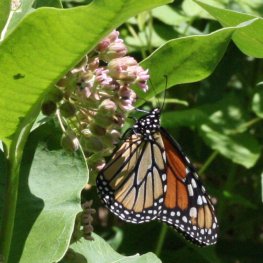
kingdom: Animalia
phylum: Arthropoda
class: Insecta
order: Lepidoptera
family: Nymphalidae
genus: Danaus
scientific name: Danaus plexippus
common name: Monarch
